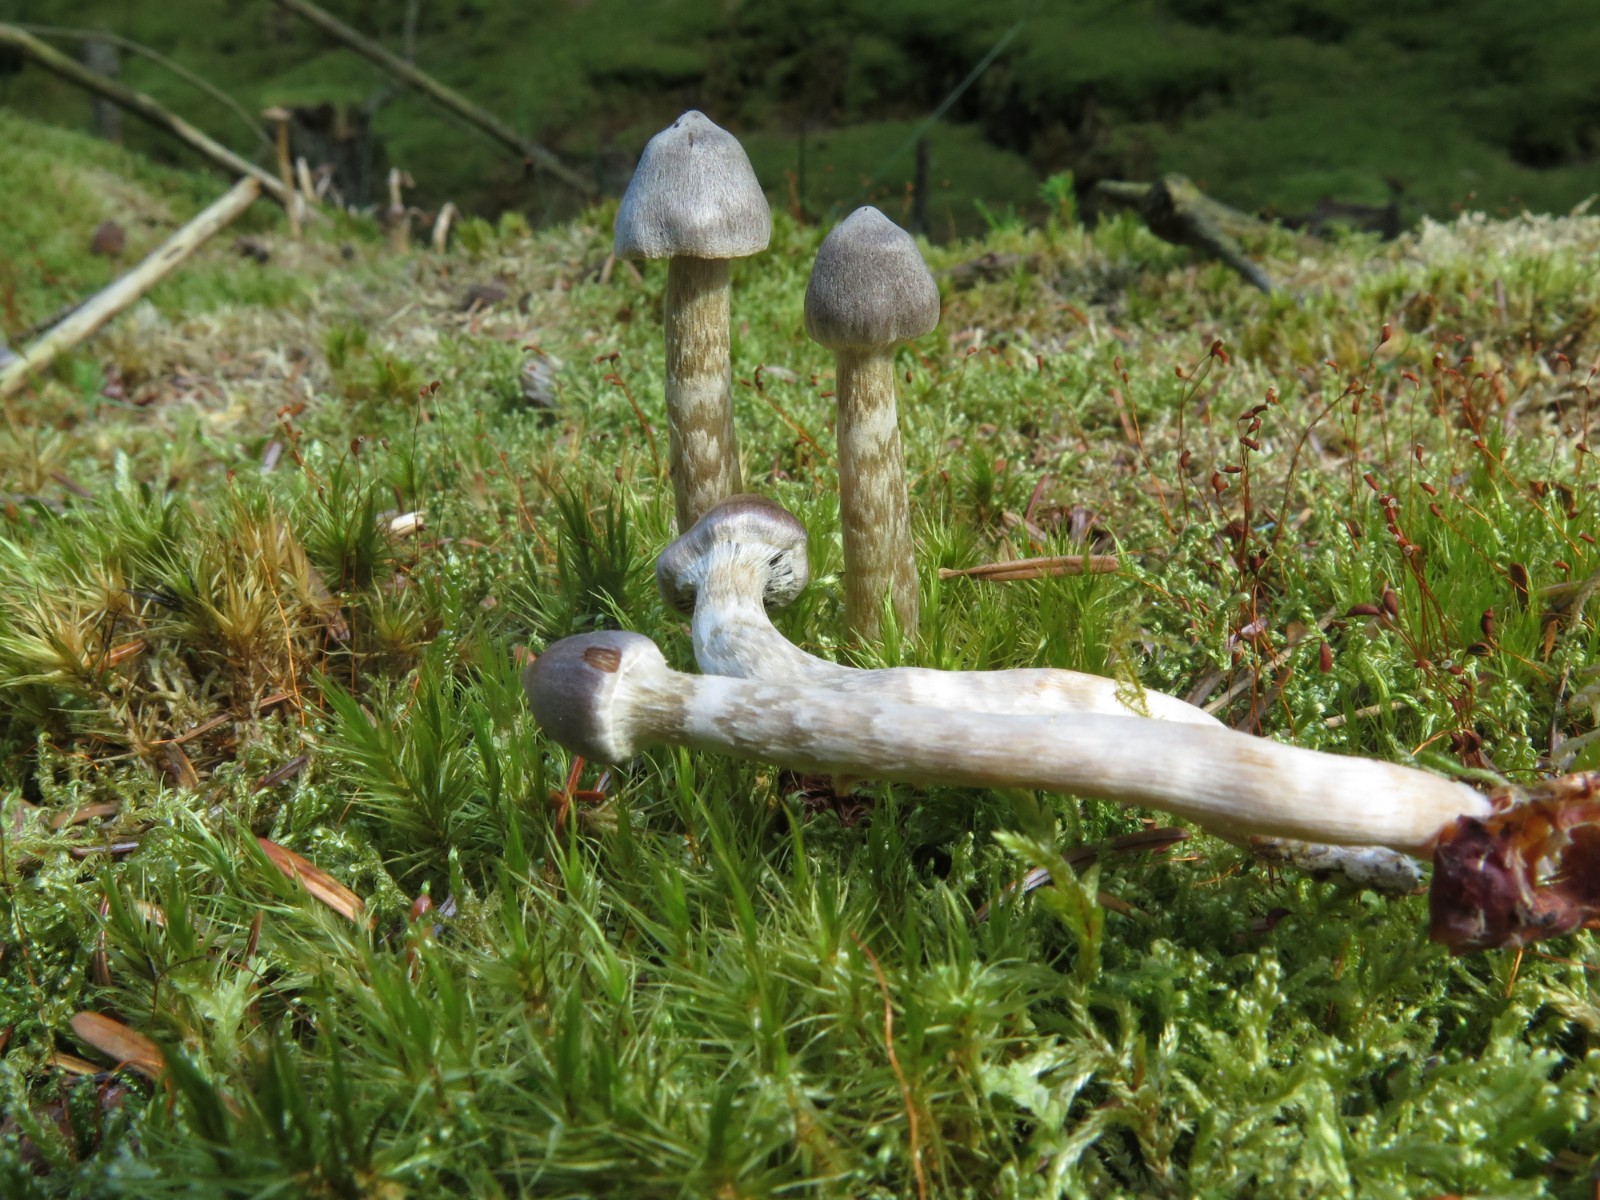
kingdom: Fungi
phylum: Basidiomycota
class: Agaricomycetes
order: Agaricales
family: Cortinariaceae
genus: Cortinarius
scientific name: Cortinarius hemitrichus
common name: hvidfnugget slørhat
